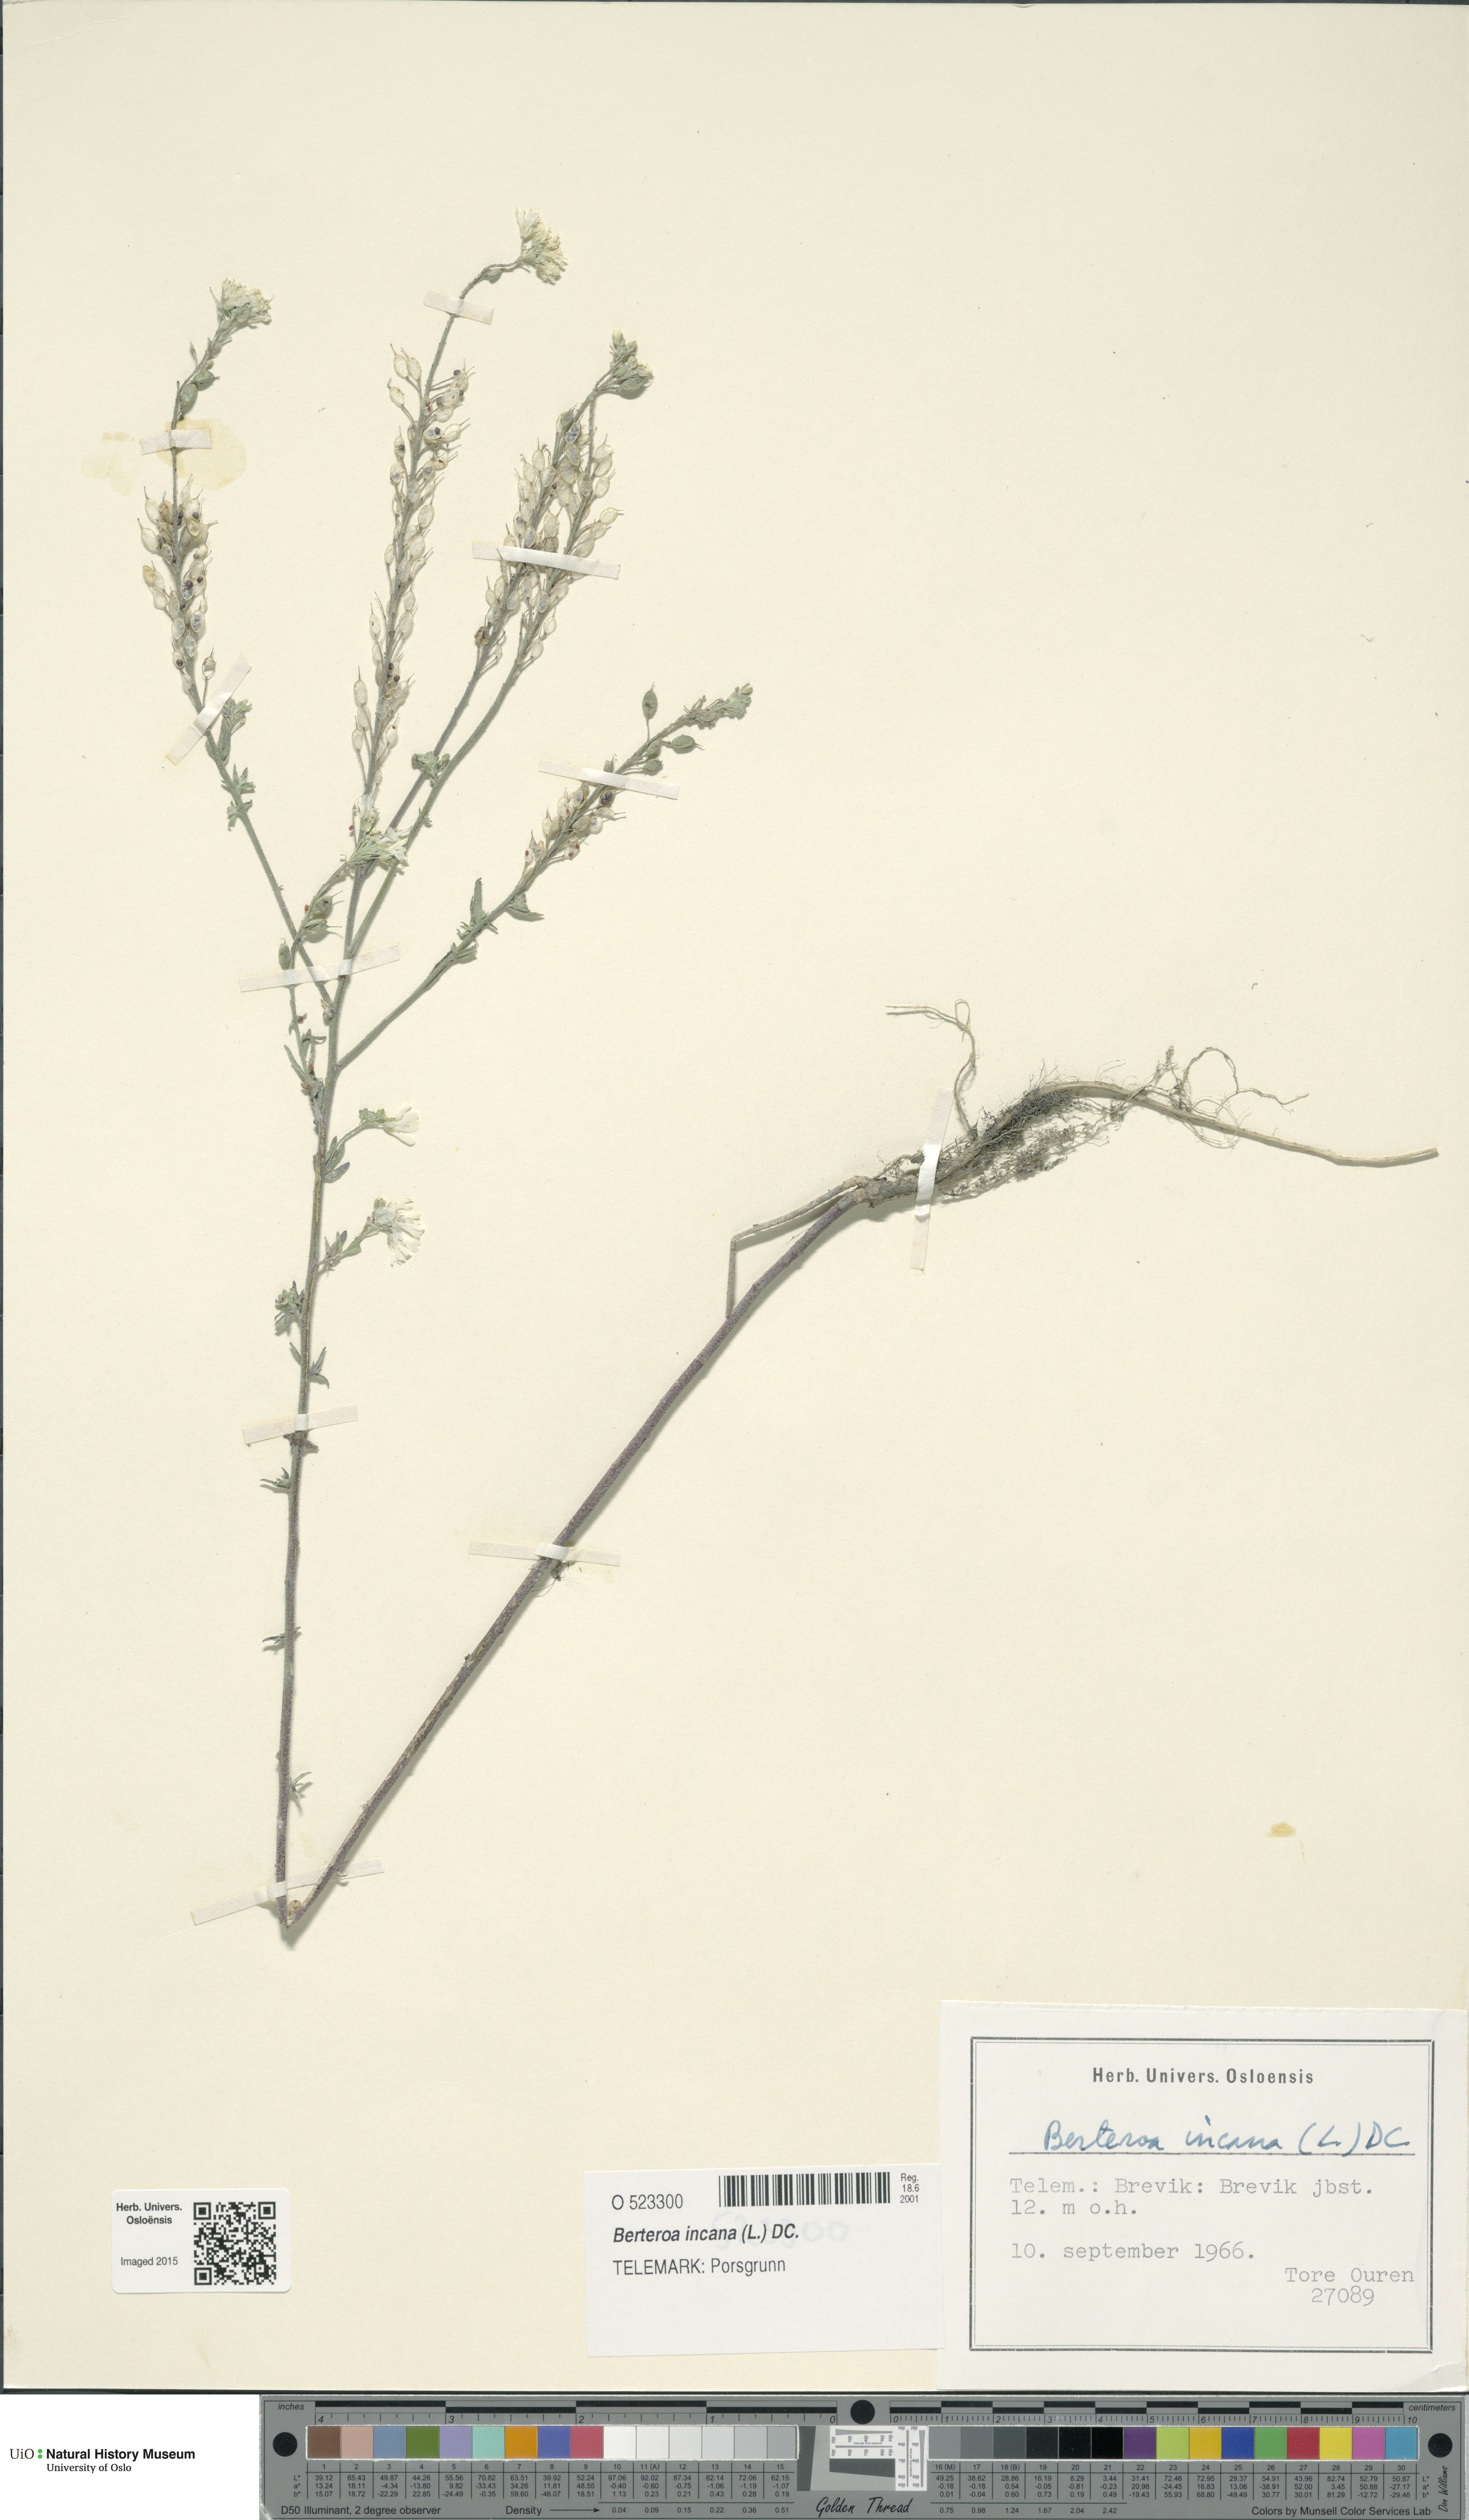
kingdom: Plantae
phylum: Tracheophyta
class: Magnoliopsida
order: Brassicales
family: Brassicaceae
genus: Berteroa
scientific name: Berteroa incana
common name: Hoary alison
